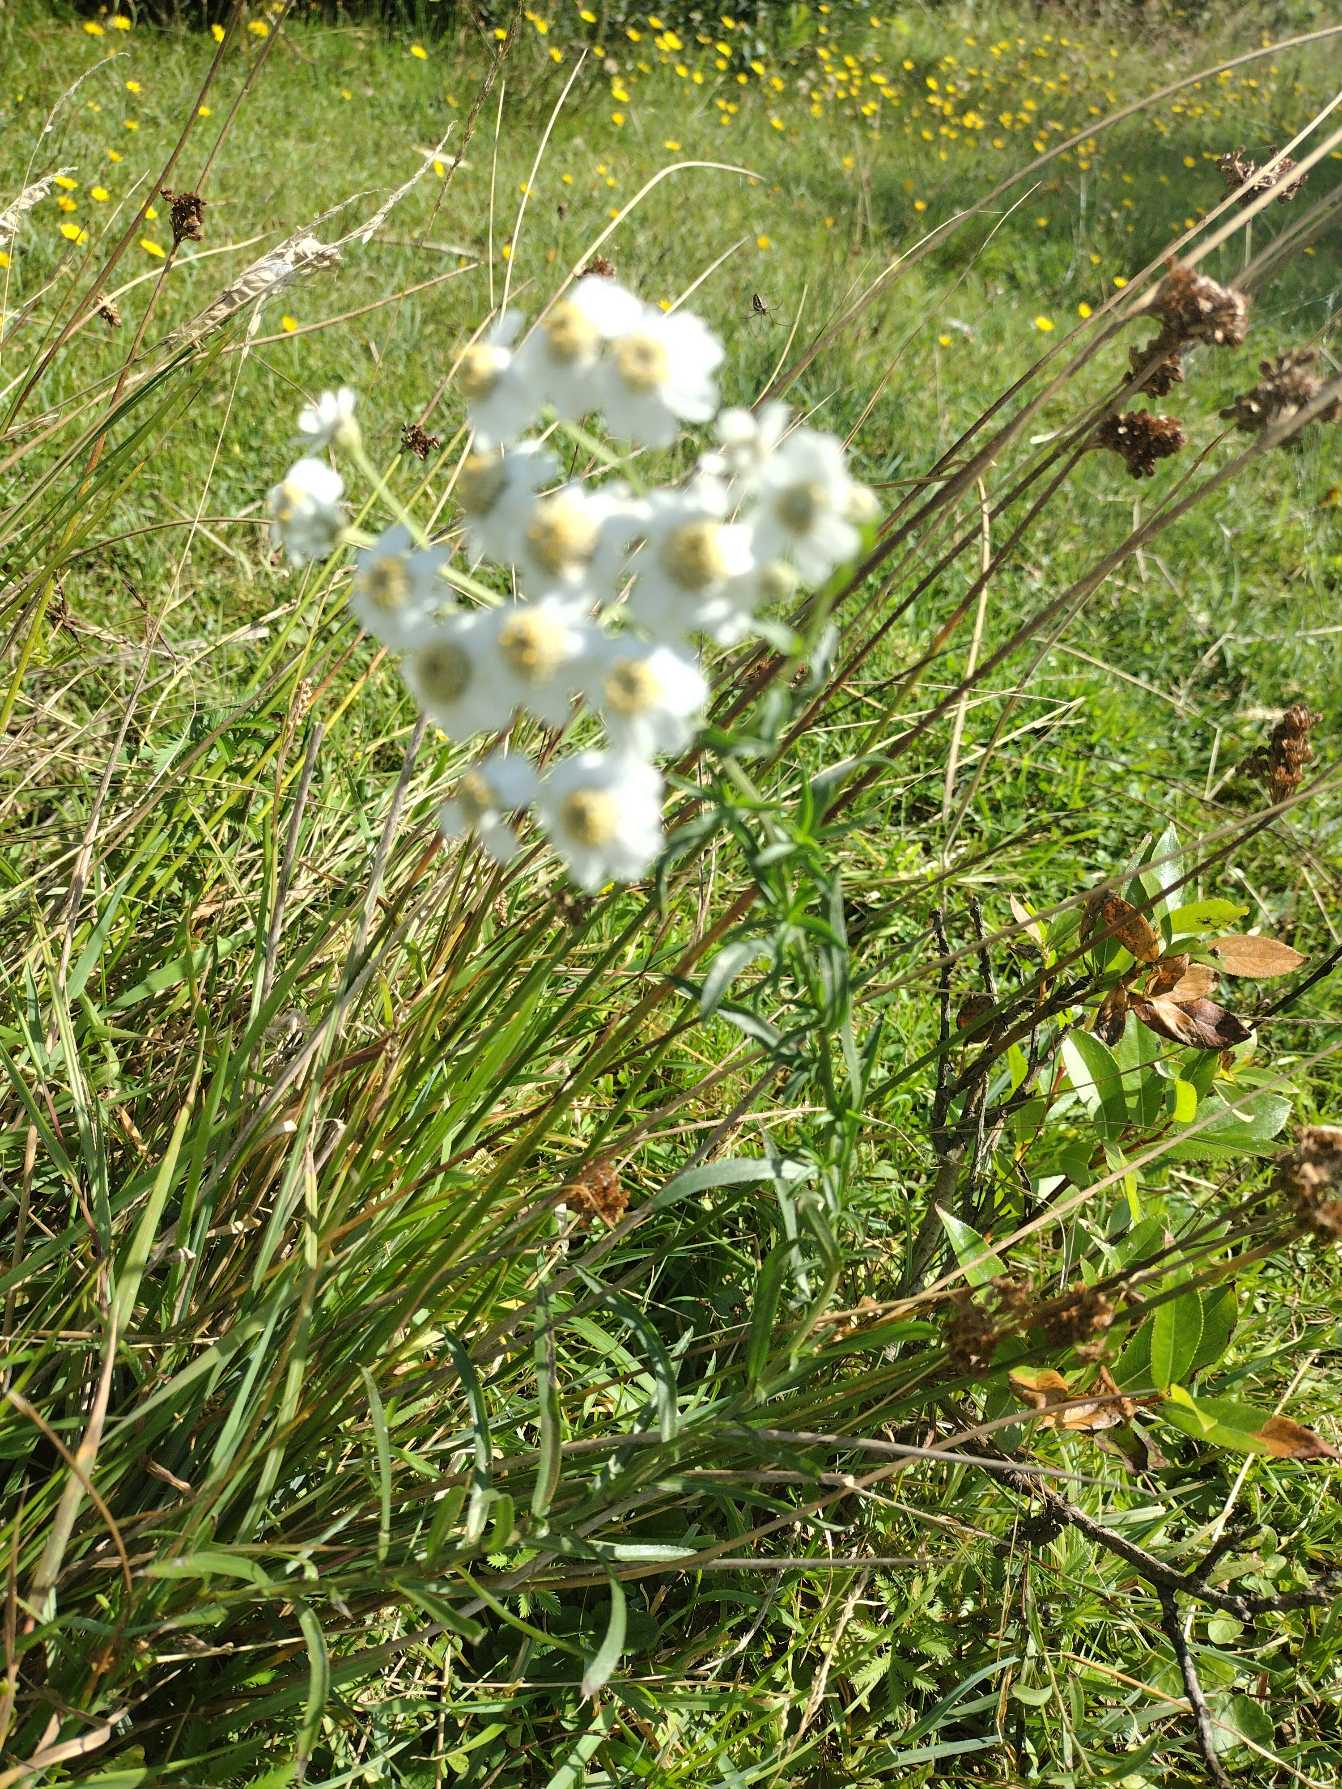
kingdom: Plantae
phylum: Tracheophyta
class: Magnoliopsida
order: Asterales
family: Asteraceae
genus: Achillea
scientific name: Achillea ptarmica
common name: Nyse-røllike
